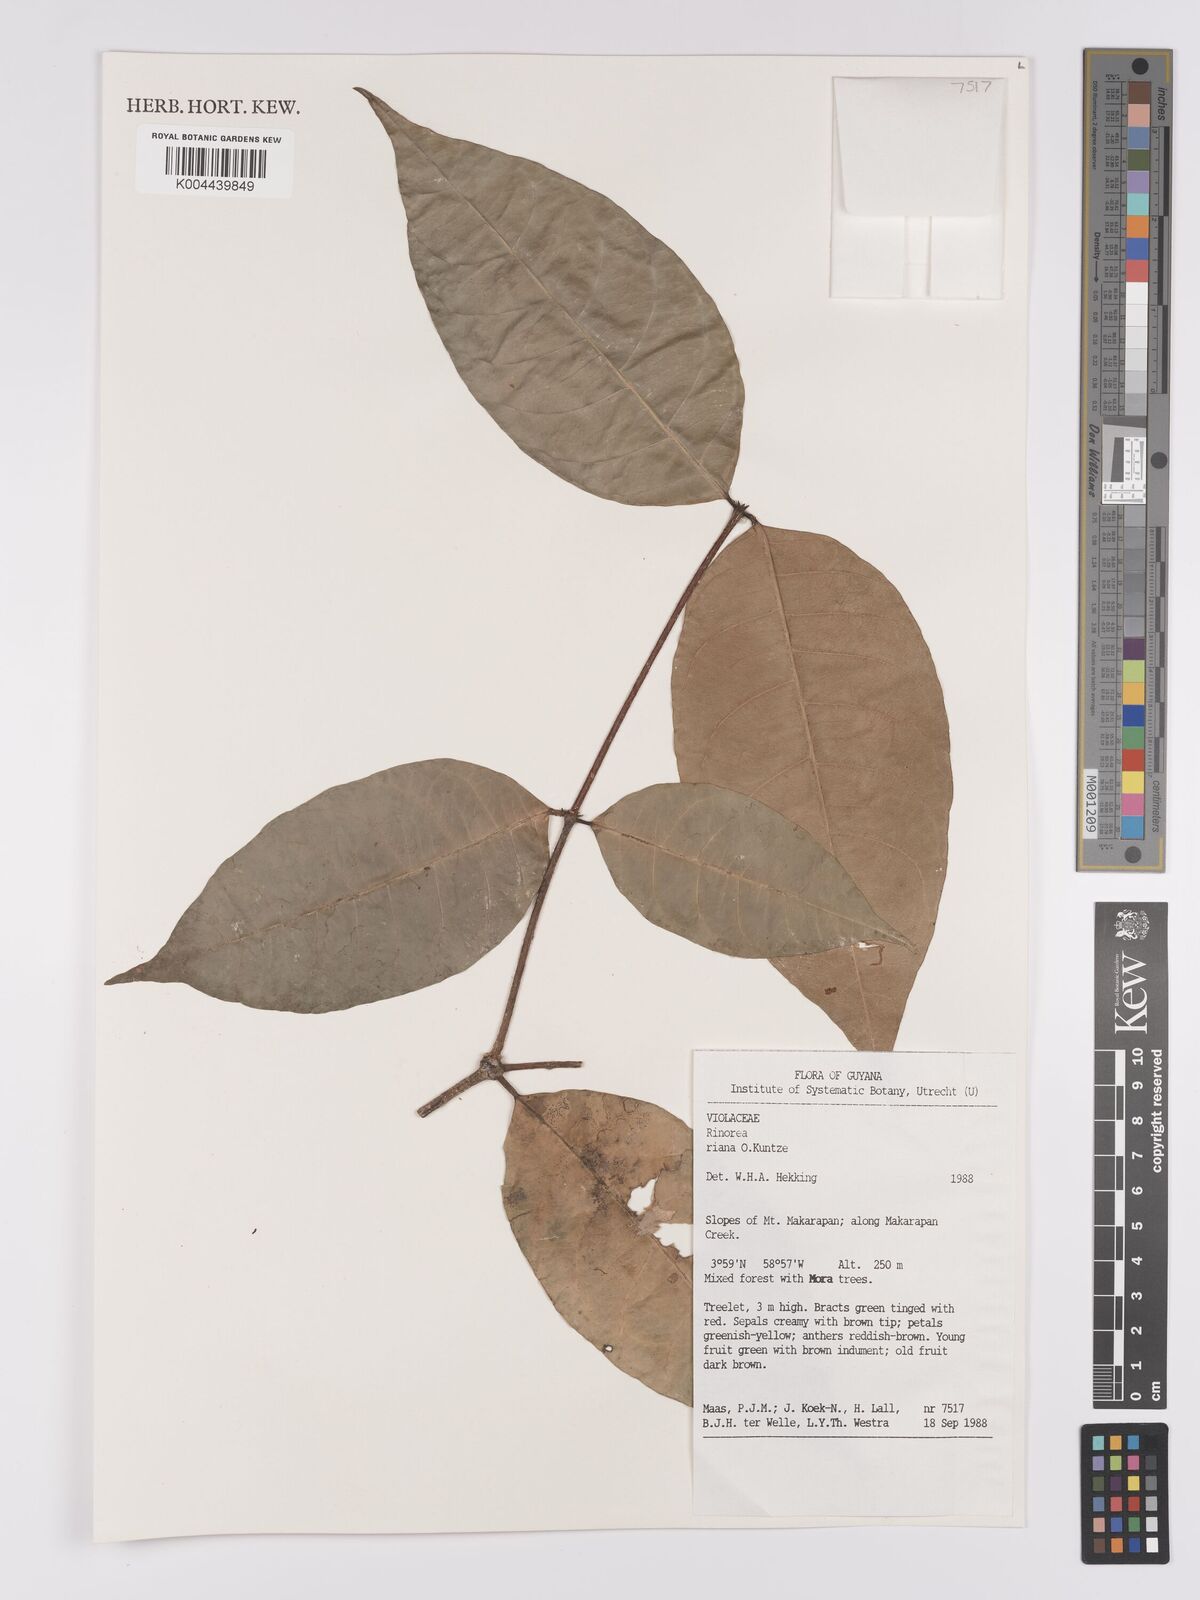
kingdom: Plantae
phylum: Tracheophyta
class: Magnoliopsida
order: Malpighiales
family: Violaceae
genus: Rinorea
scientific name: Rinorea riana
